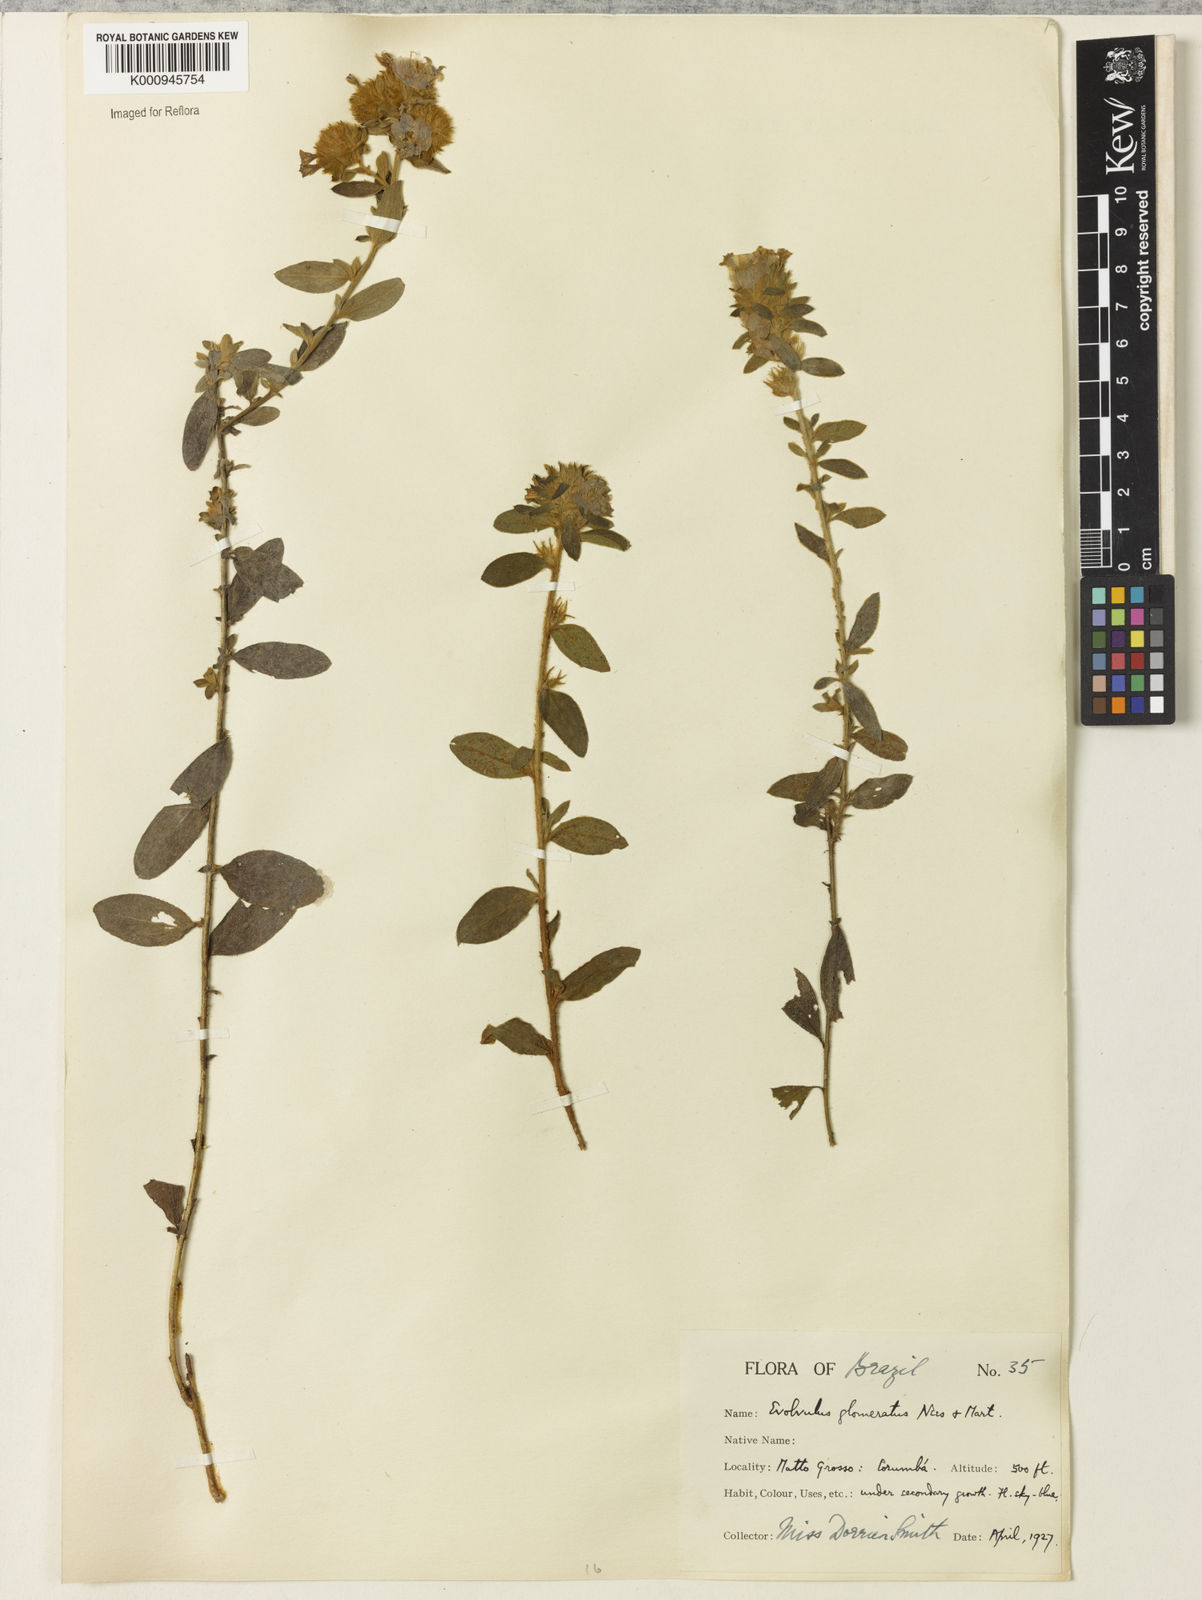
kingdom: Plantae
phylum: Tracheophyta
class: Magnoliopsida
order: Solanales
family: Convolvulaceae
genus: Evolvulus
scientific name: Evolvulus glomeratus
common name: Brazilian dwarf morning-glory
